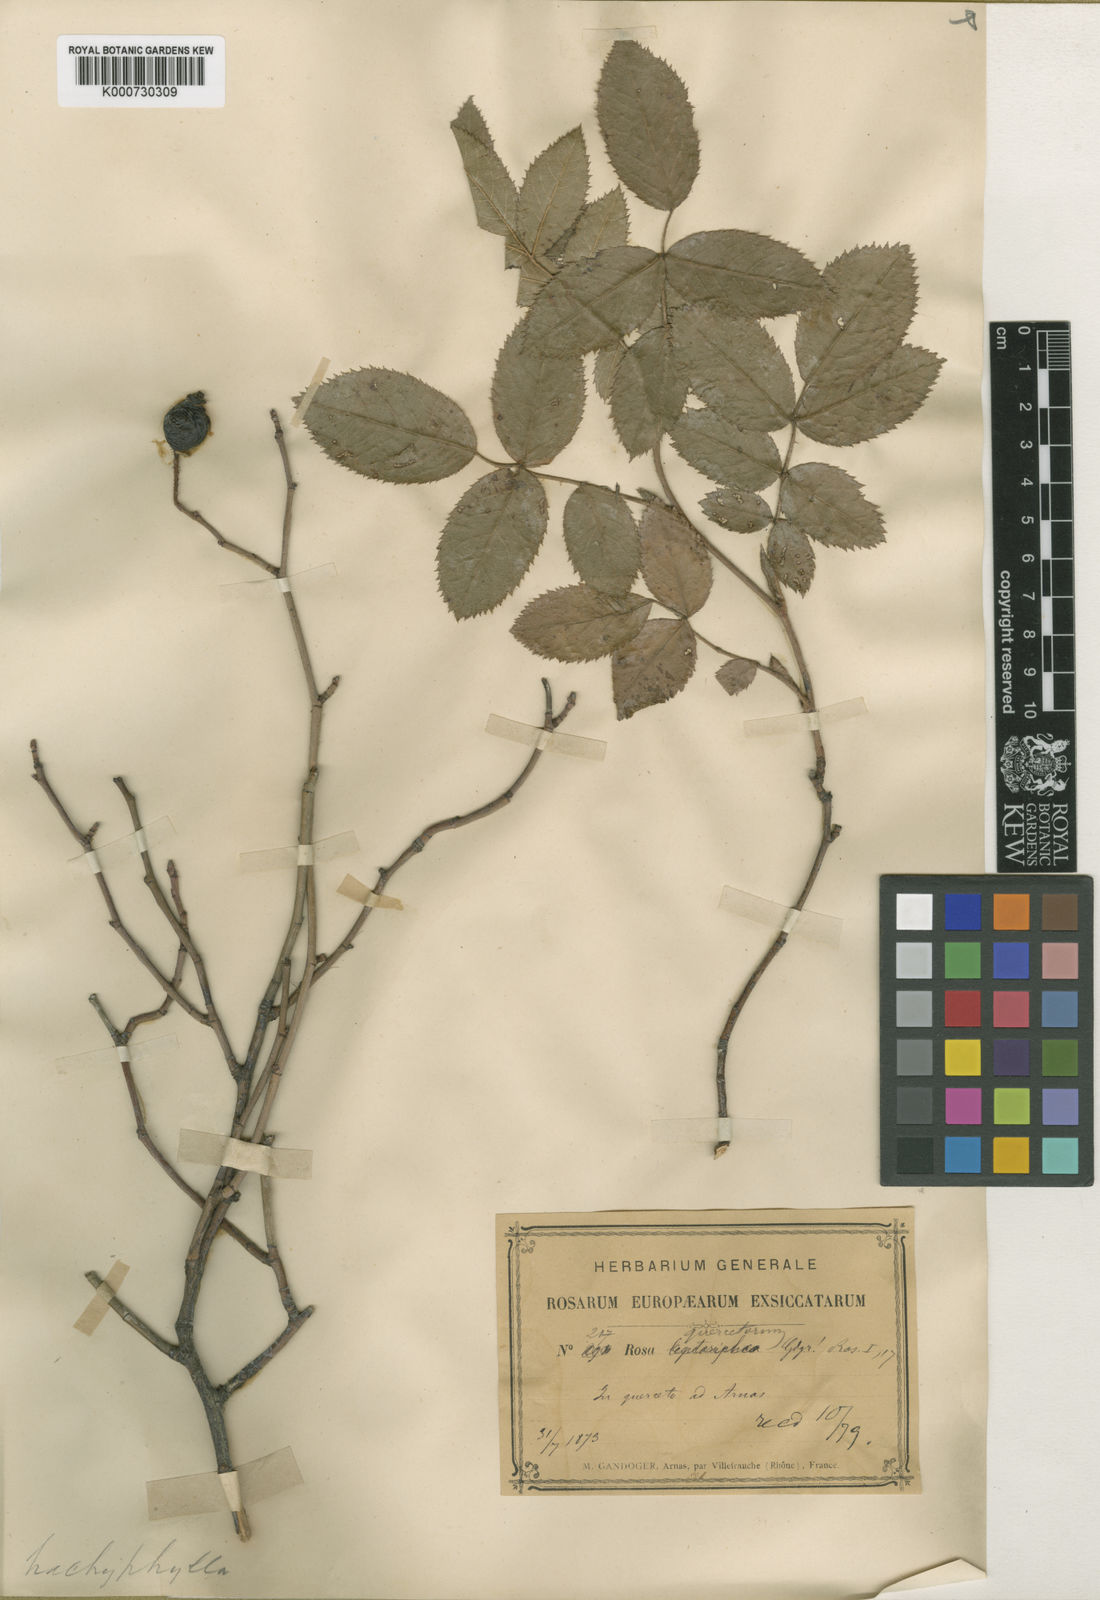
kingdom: Plantae
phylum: Tracheophyta
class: Magnoliopsida
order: Rosales
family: Rosaceae
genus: Rosa
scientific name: Rosa marginata
